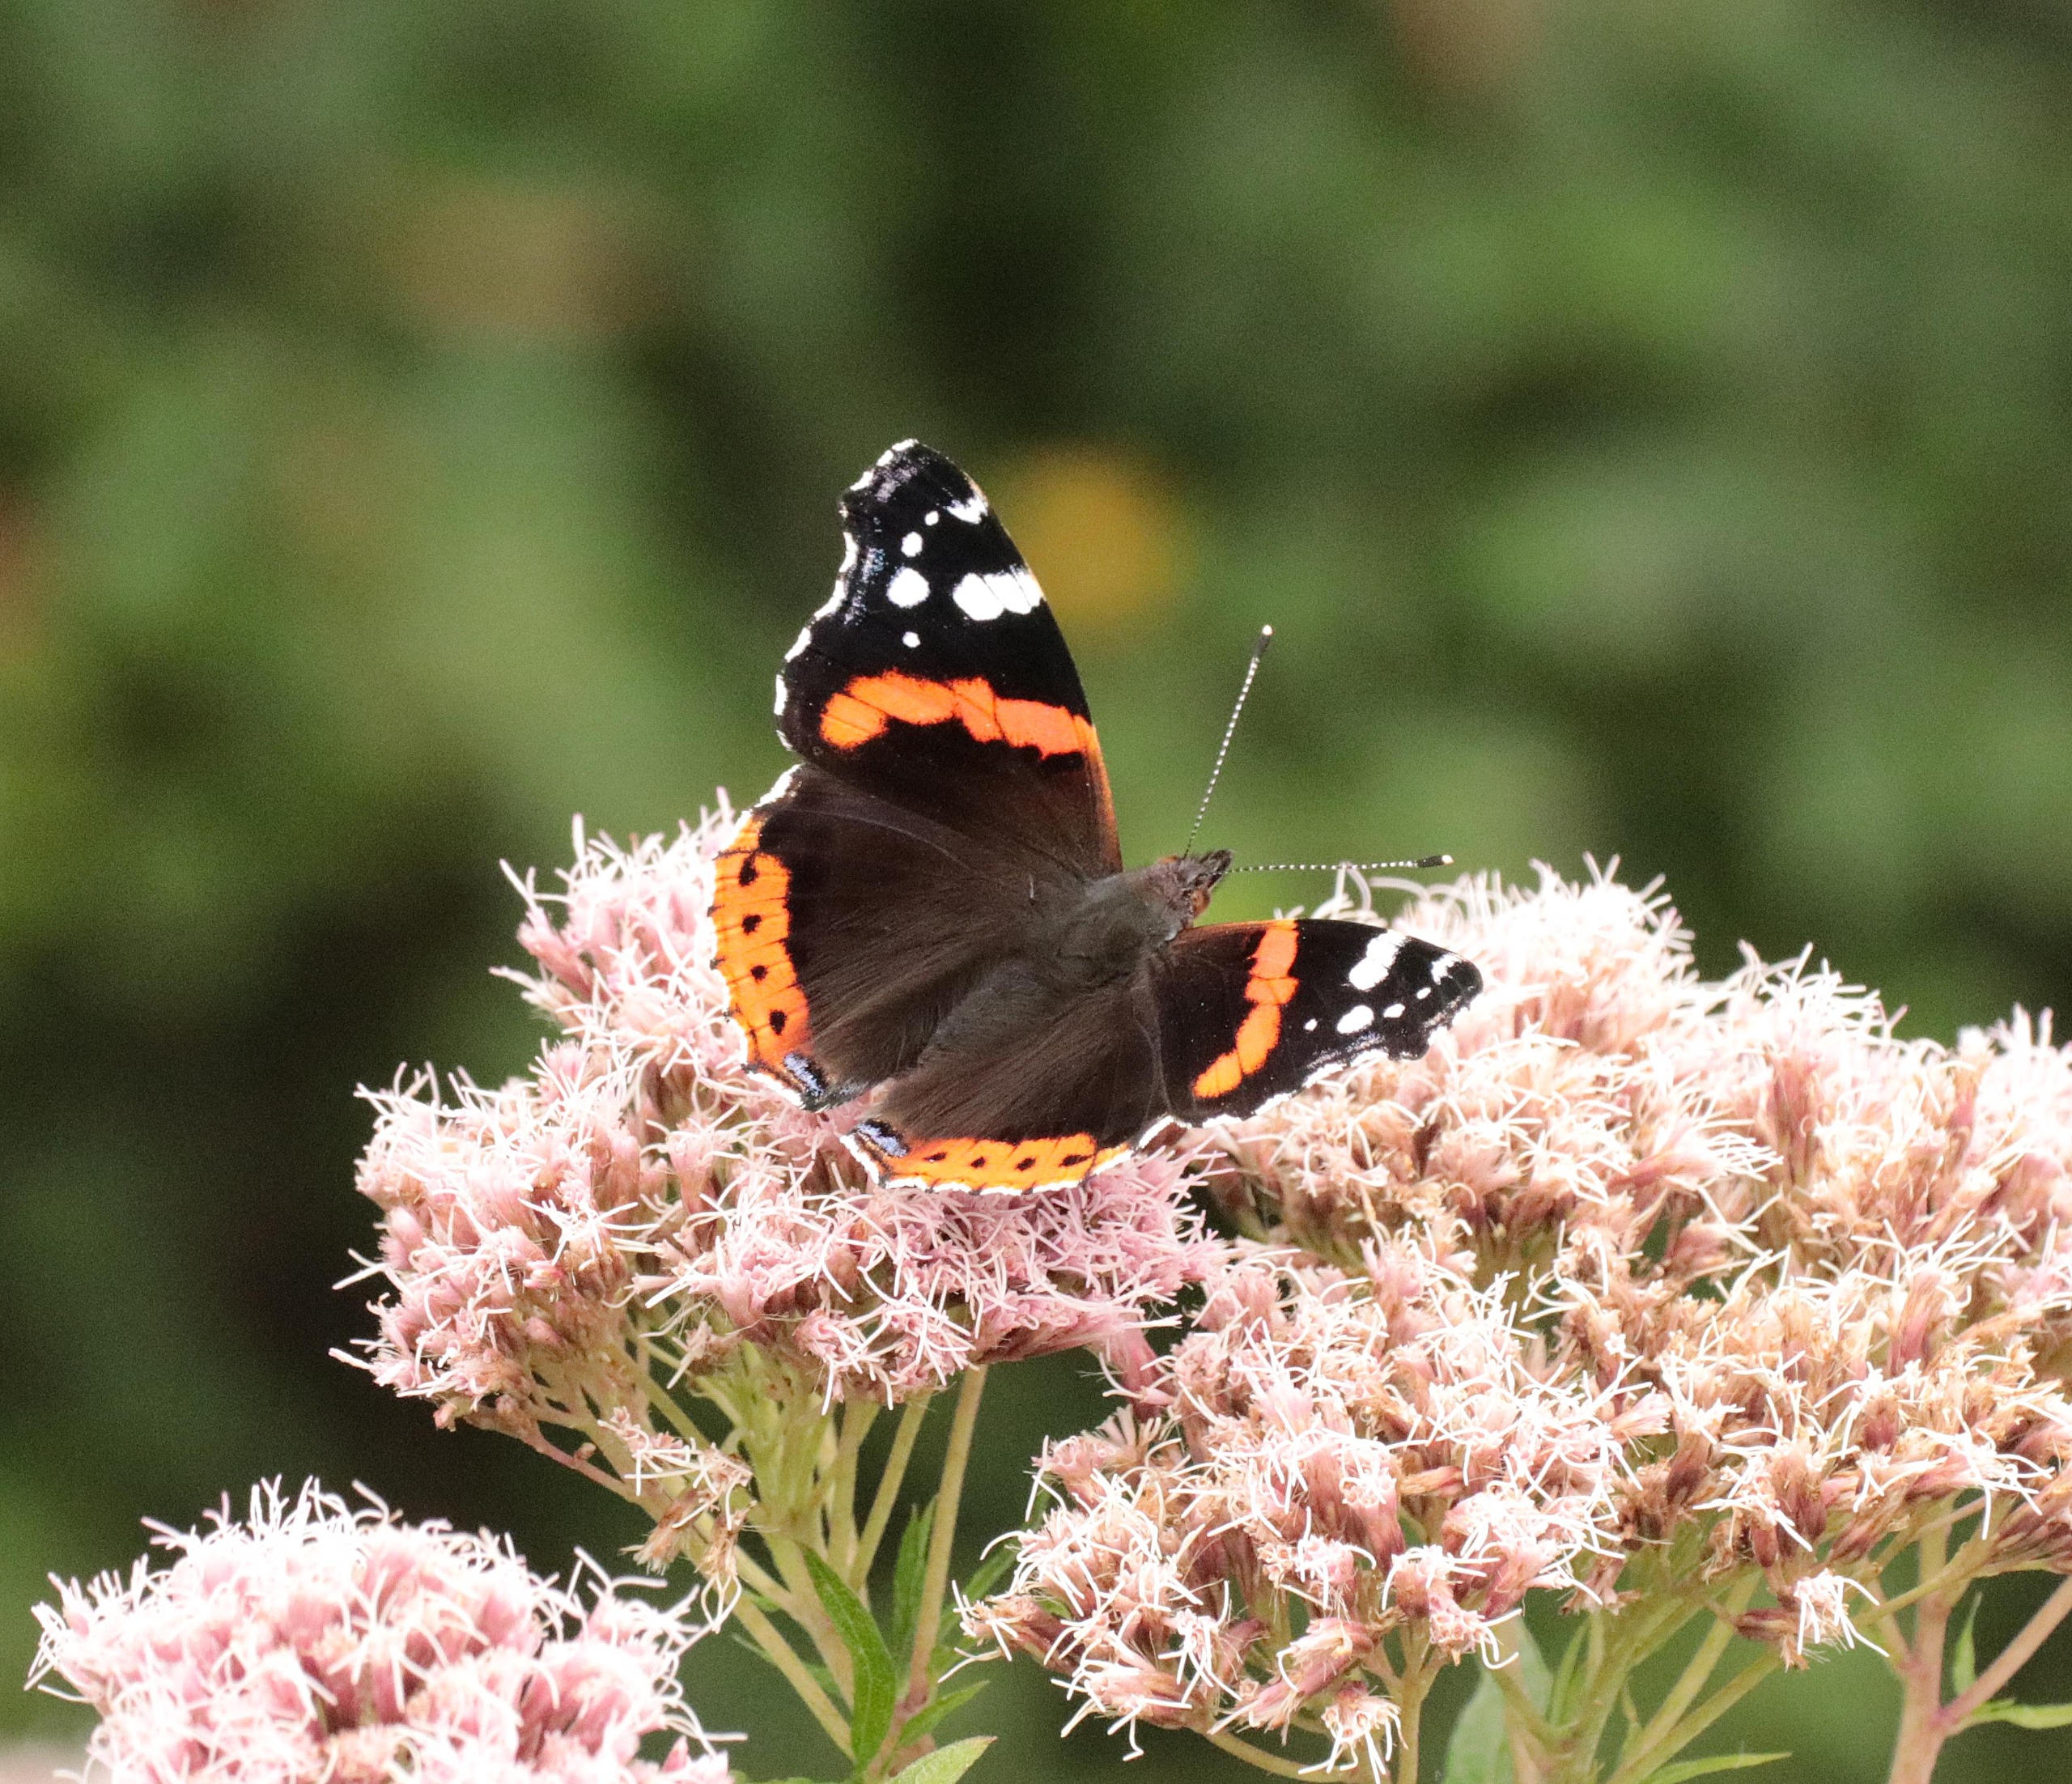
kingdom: Animalia
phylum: Arthropoda
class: Insecta
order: Lepidoptera
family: Nymphalidae
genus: Vanessa
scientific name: Vanessa atalanta
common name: Admiral
